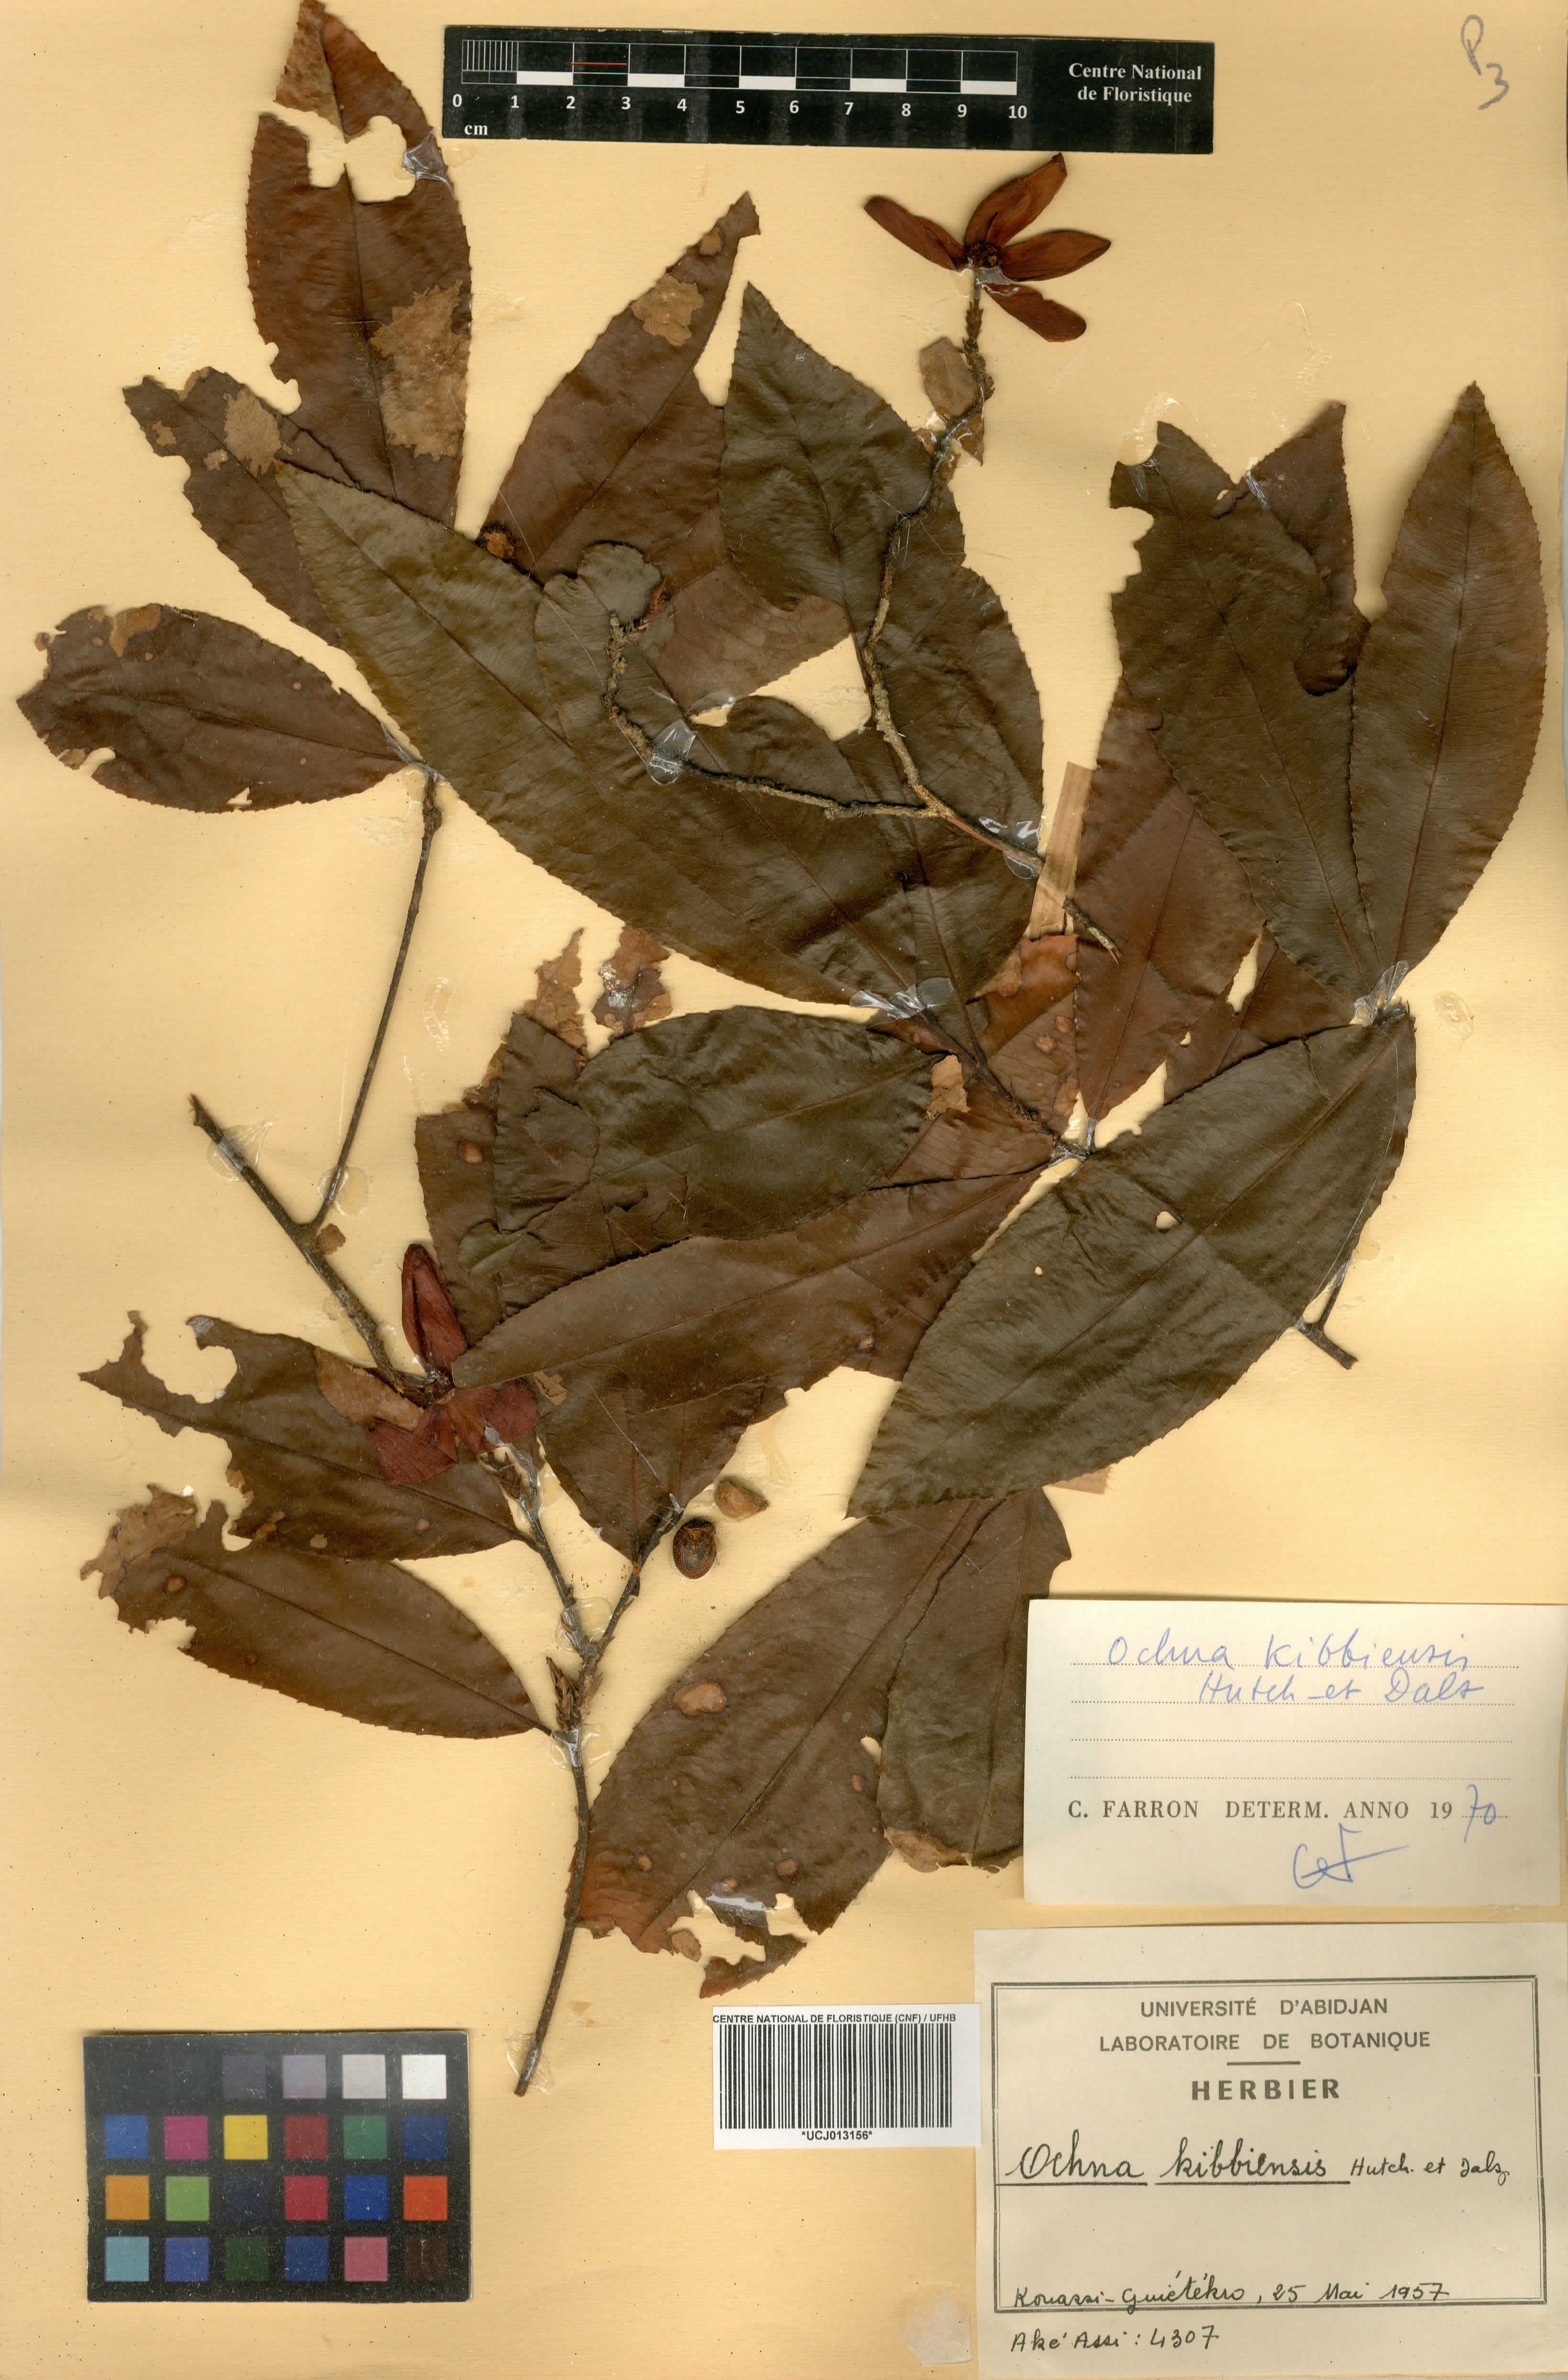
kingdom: Plantae
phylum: Tracheophyta
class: Magnoliopsida
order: Malpighiales
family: Ochnaceae
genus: Ochna
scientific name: Ochna kibbiensis
